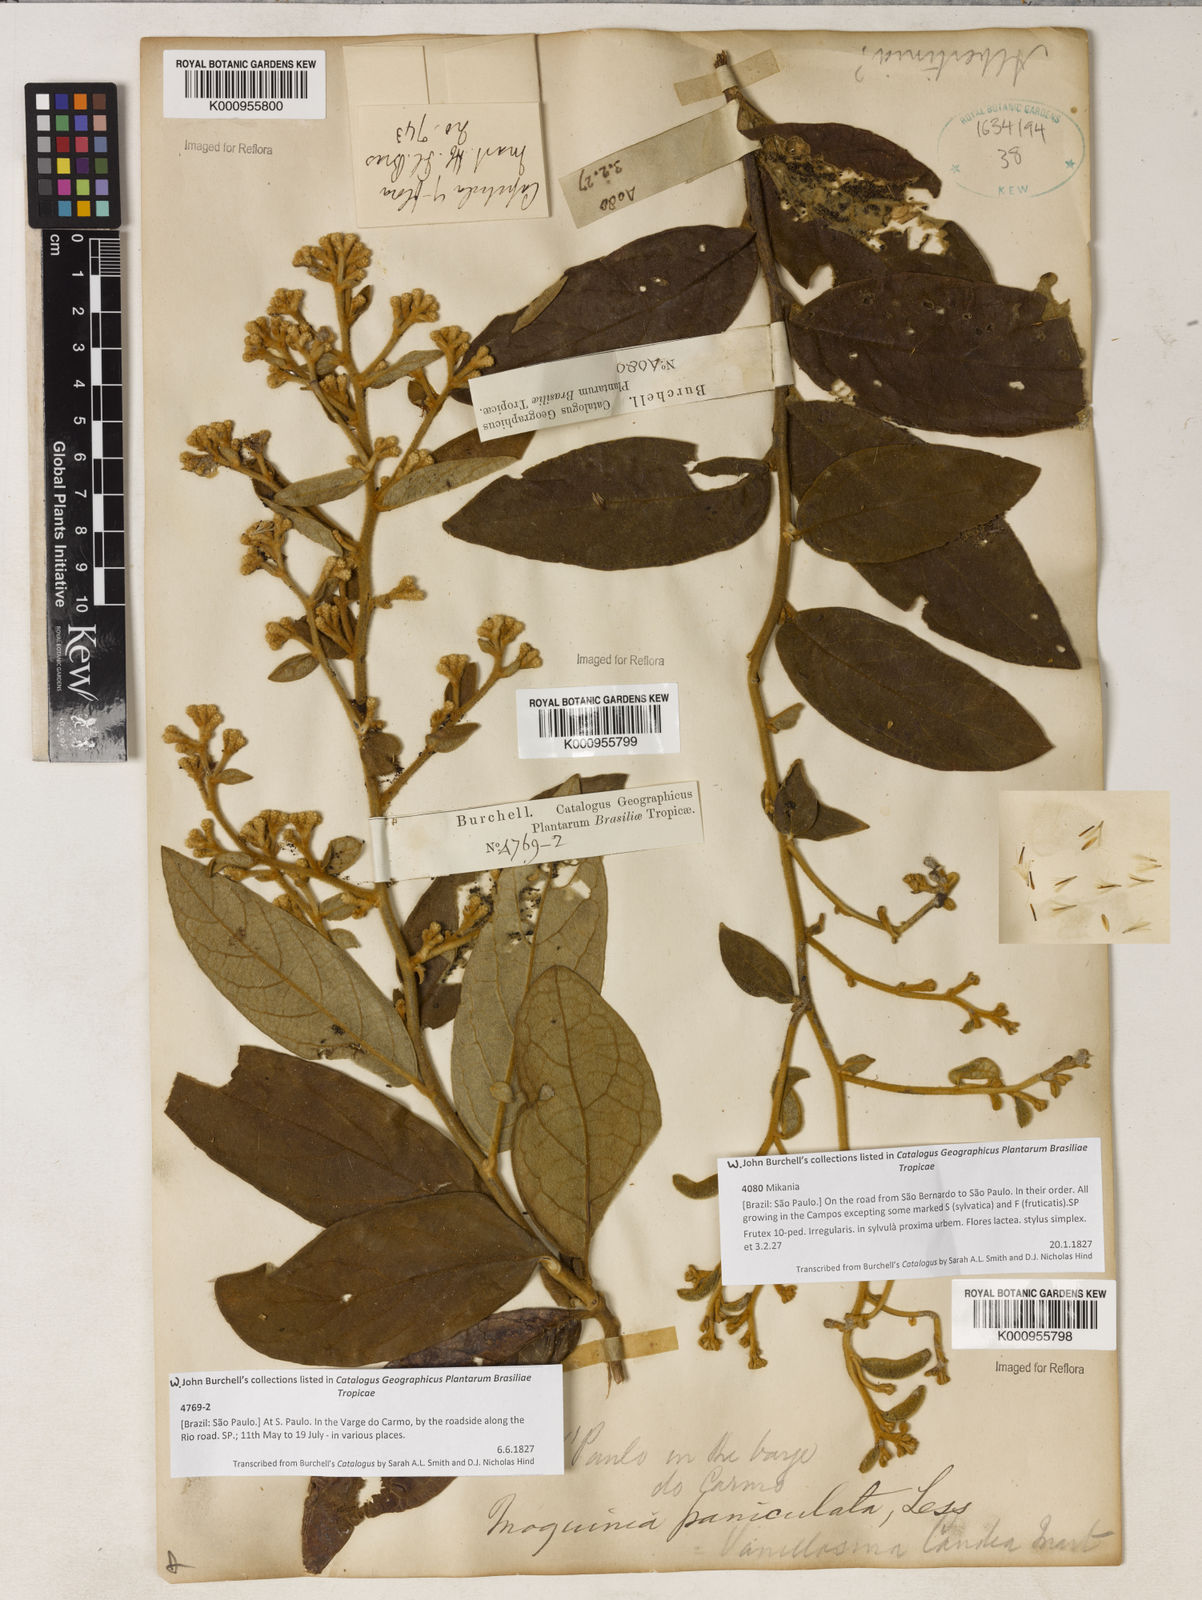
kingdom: Plantae
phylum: Tracheophyta
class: Magnoliopsida
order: Asterales
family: Asteraceae
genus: Moquiniastrum
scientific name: Moquiniastrum paniculatum
